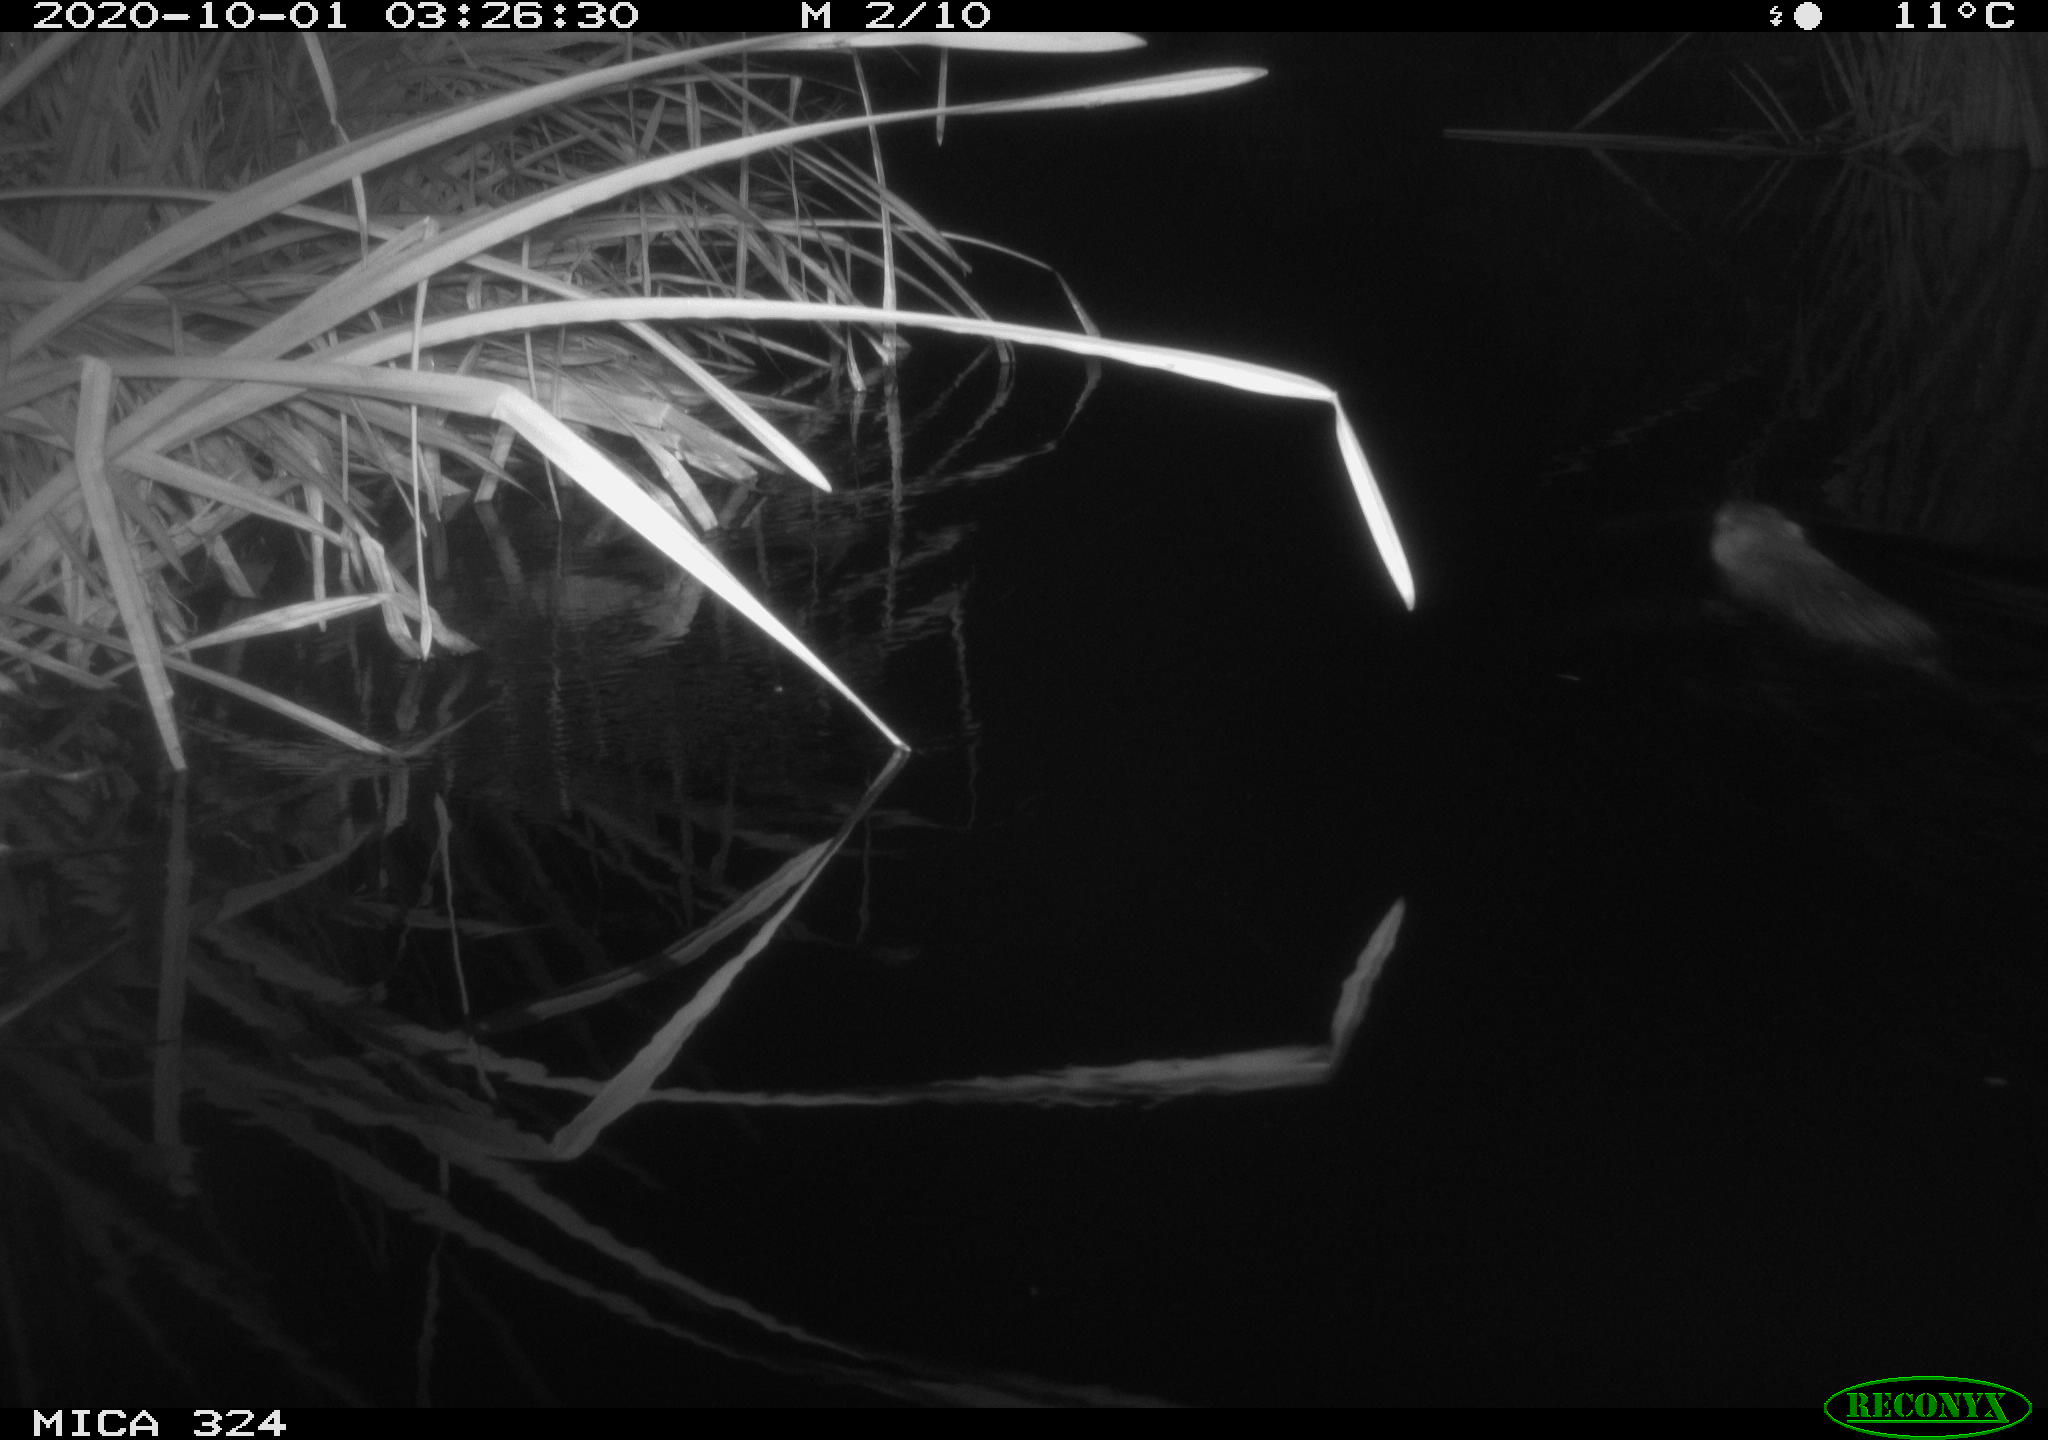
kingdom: Animalia
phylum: Chordata
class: Mammalia
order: Rodentia
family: Myocastoridae
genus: Myocastor
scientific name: Myocastor coypus
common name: Coypu
